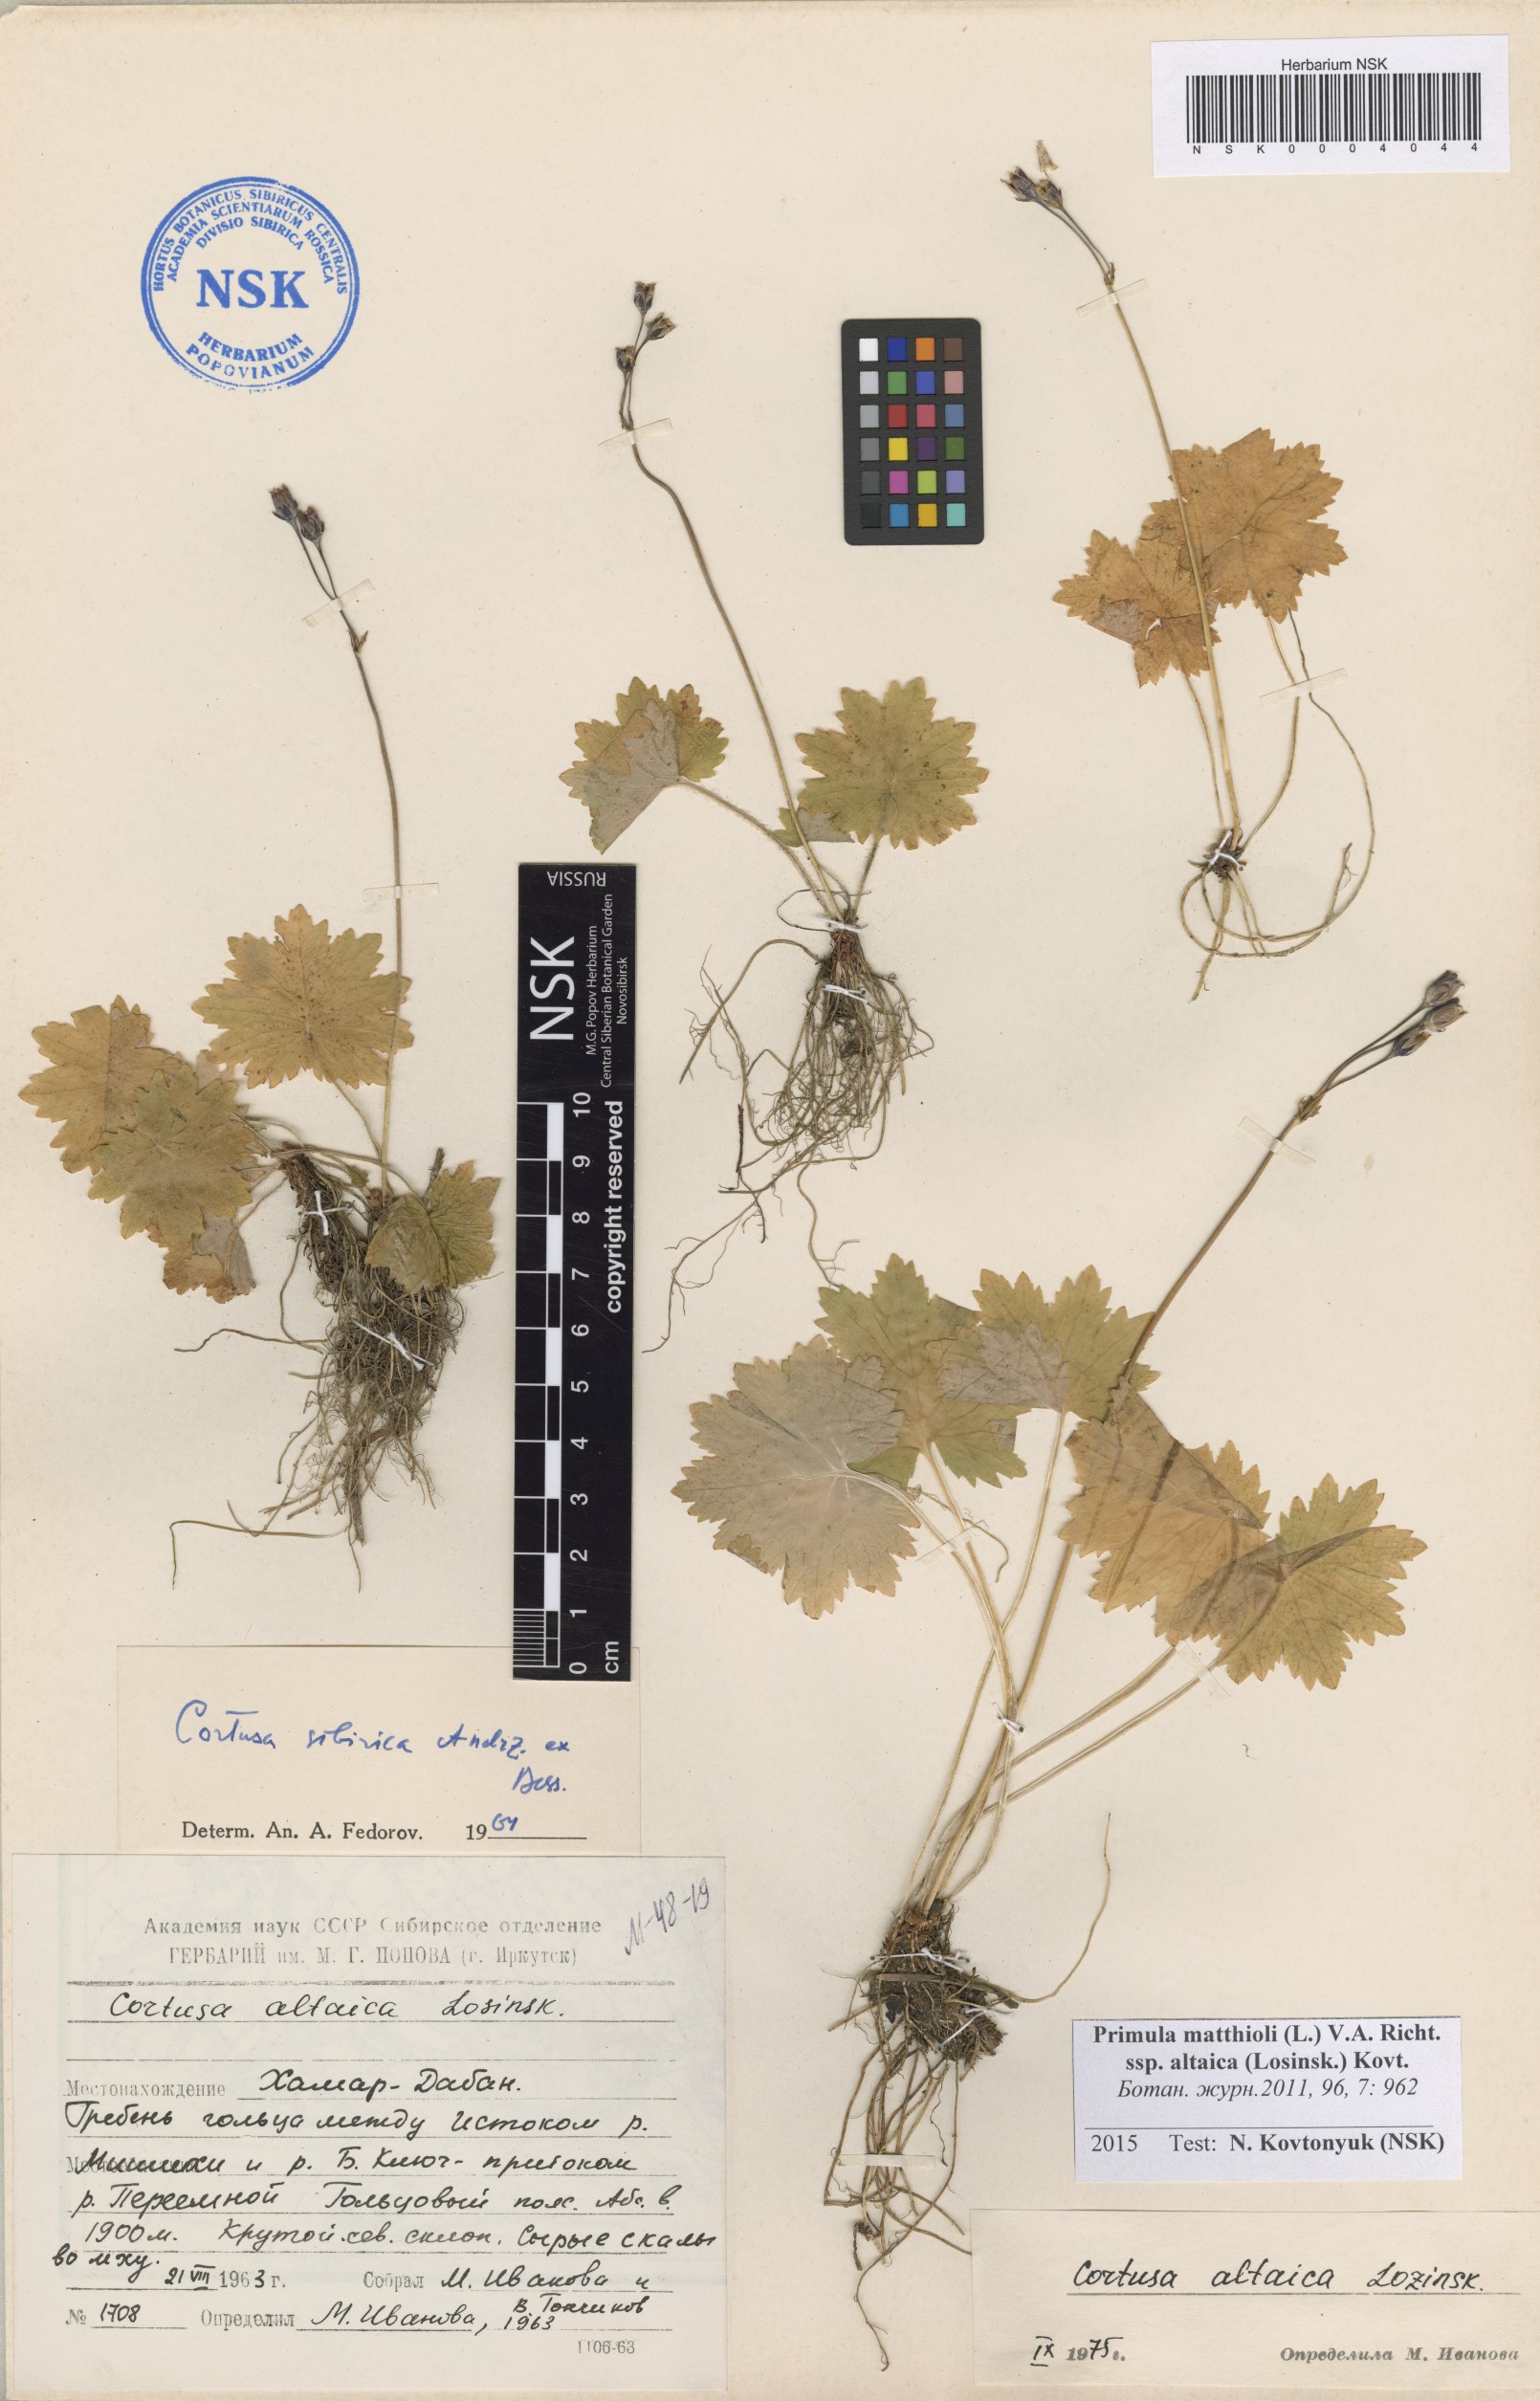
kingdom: Plantae
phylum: Tracheophyta
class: Magnoliopsida
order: Ericales
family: Primulaceae
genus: Primula
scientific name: Primula matthioli
